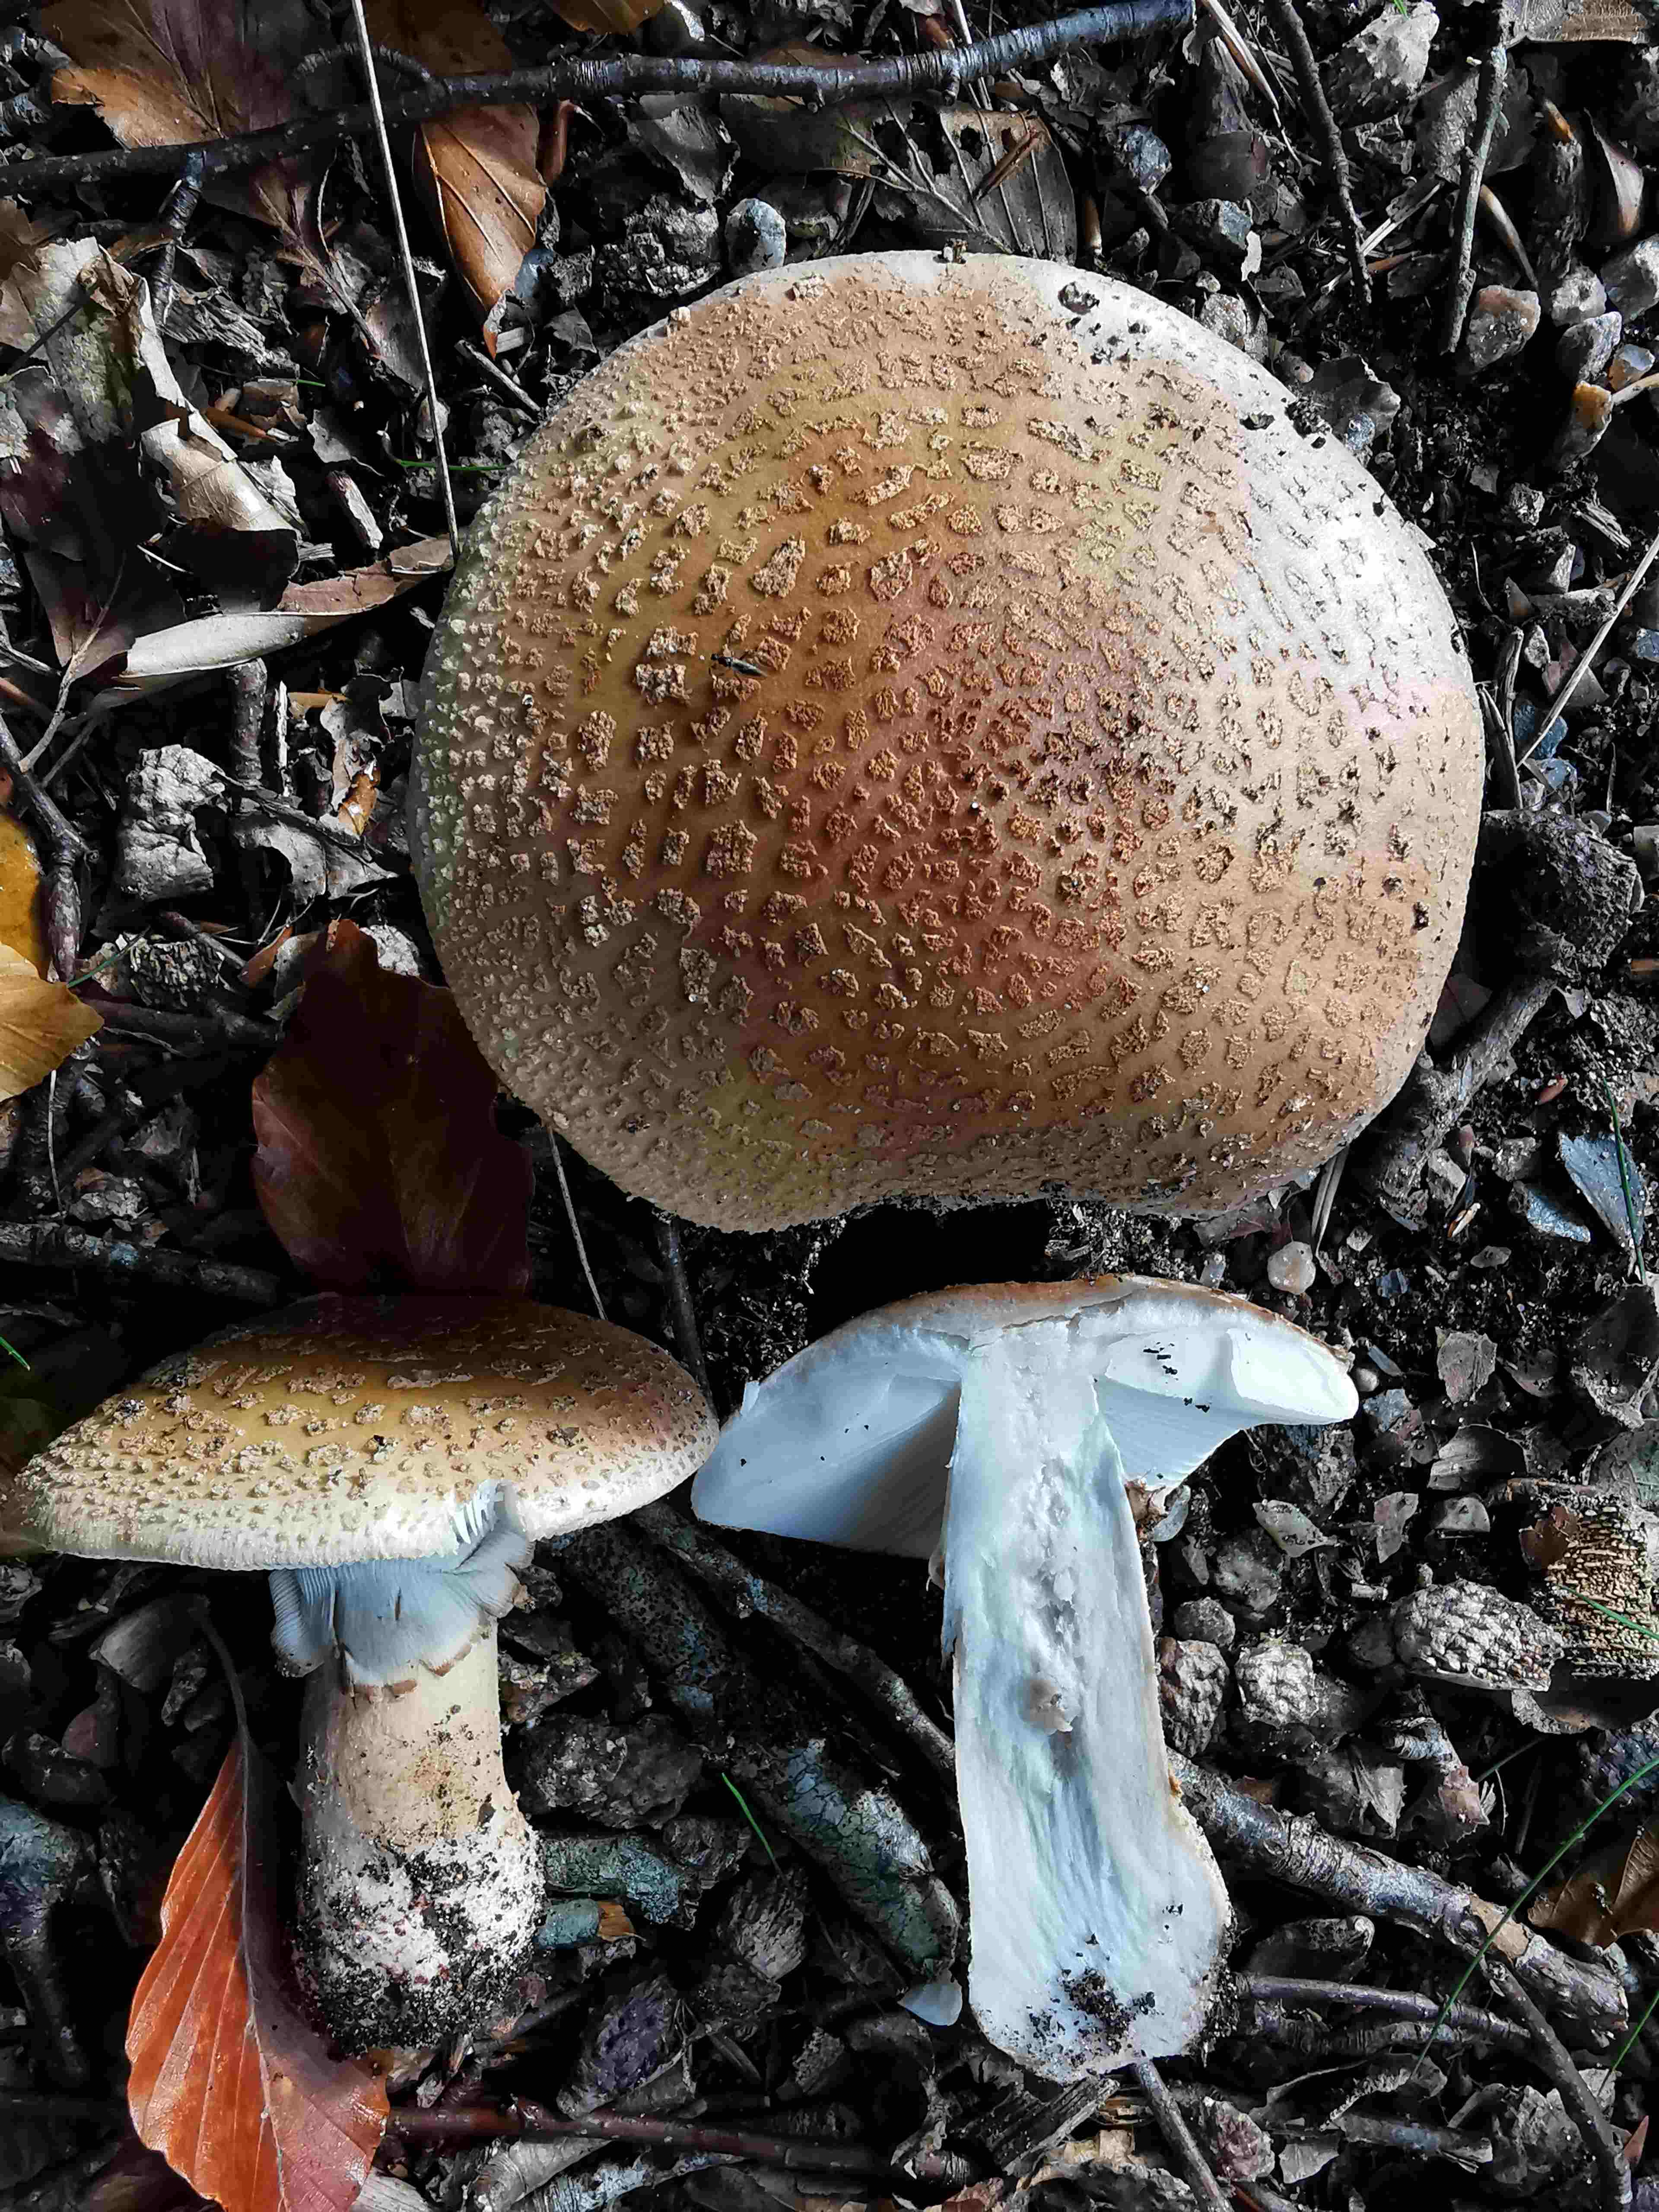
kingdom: Fungi
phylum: Basidiomycota
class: Agaricomycetes
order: Agaricales
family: Amanitaceae
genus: Amanita
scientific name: Amanita rubescens
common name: rødmende fluesvamp
